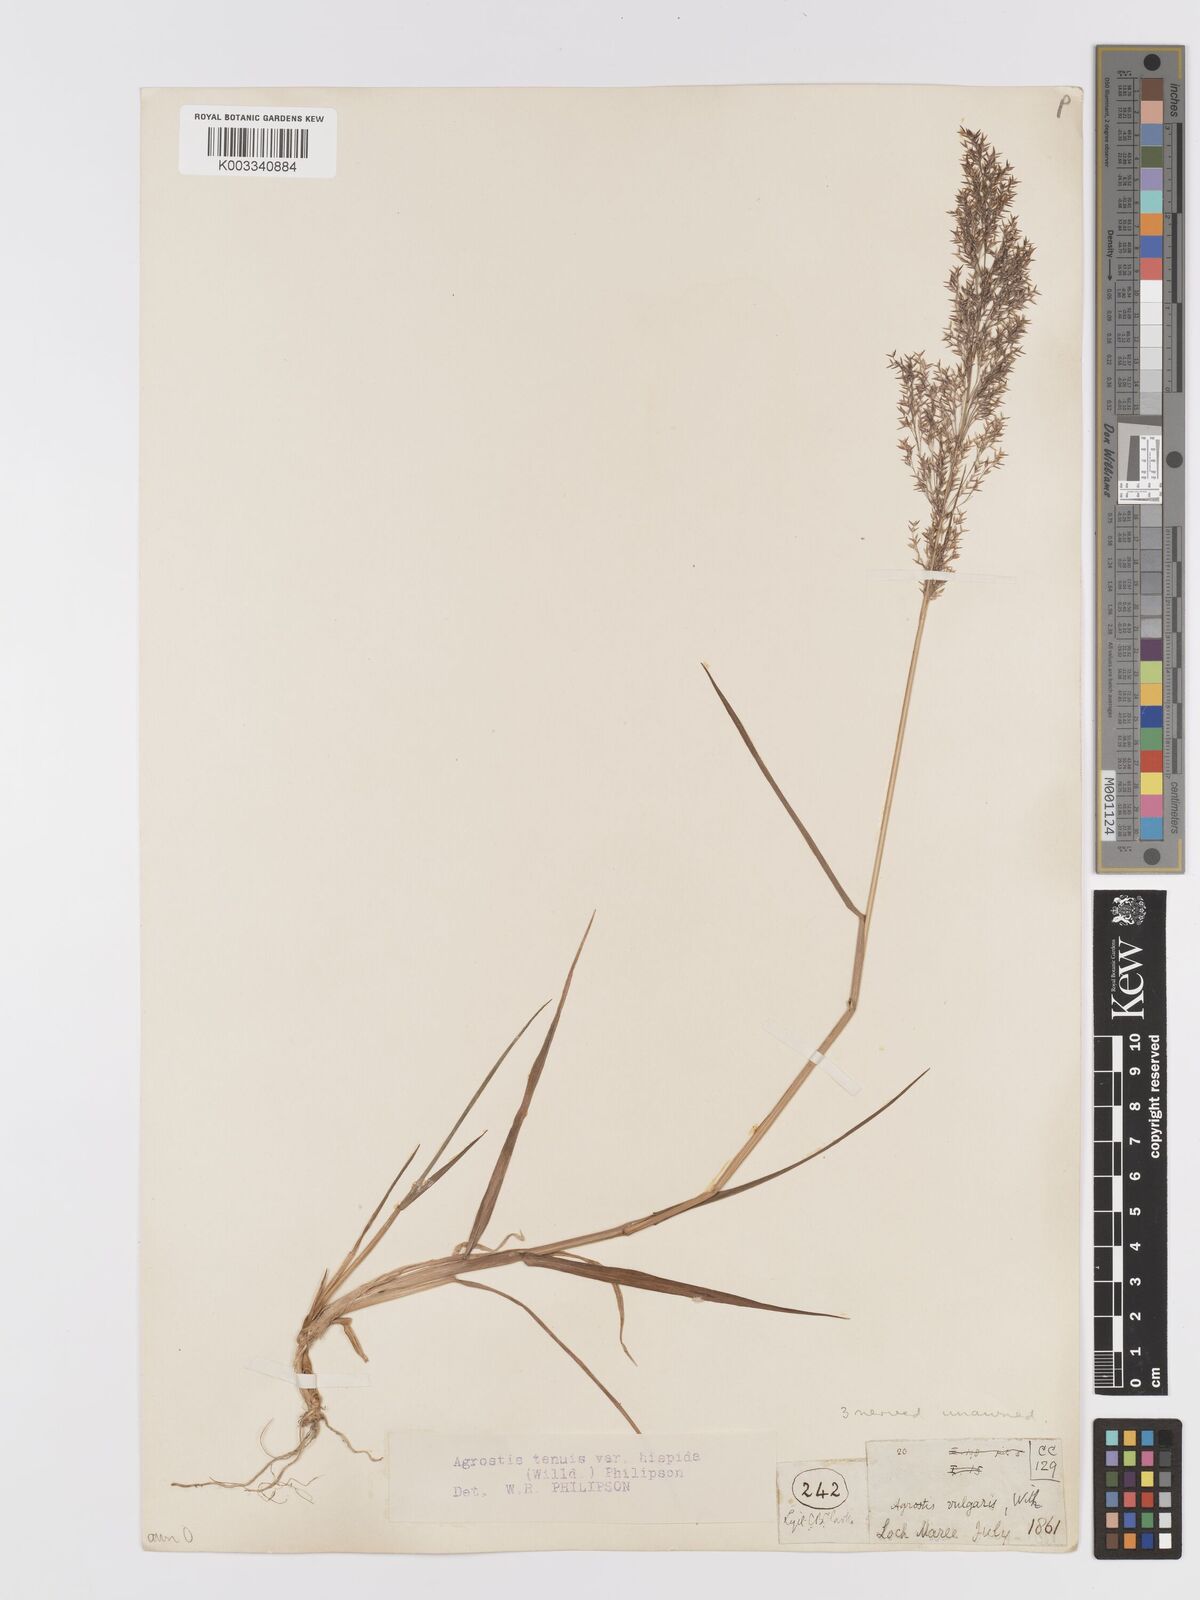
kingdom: Plantae
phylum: Tracheophyta
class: Liliopsida
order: Poales
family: Poaceae
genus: Agrostis
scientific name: Agrostis capillaris
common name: Colonial bentgrass
